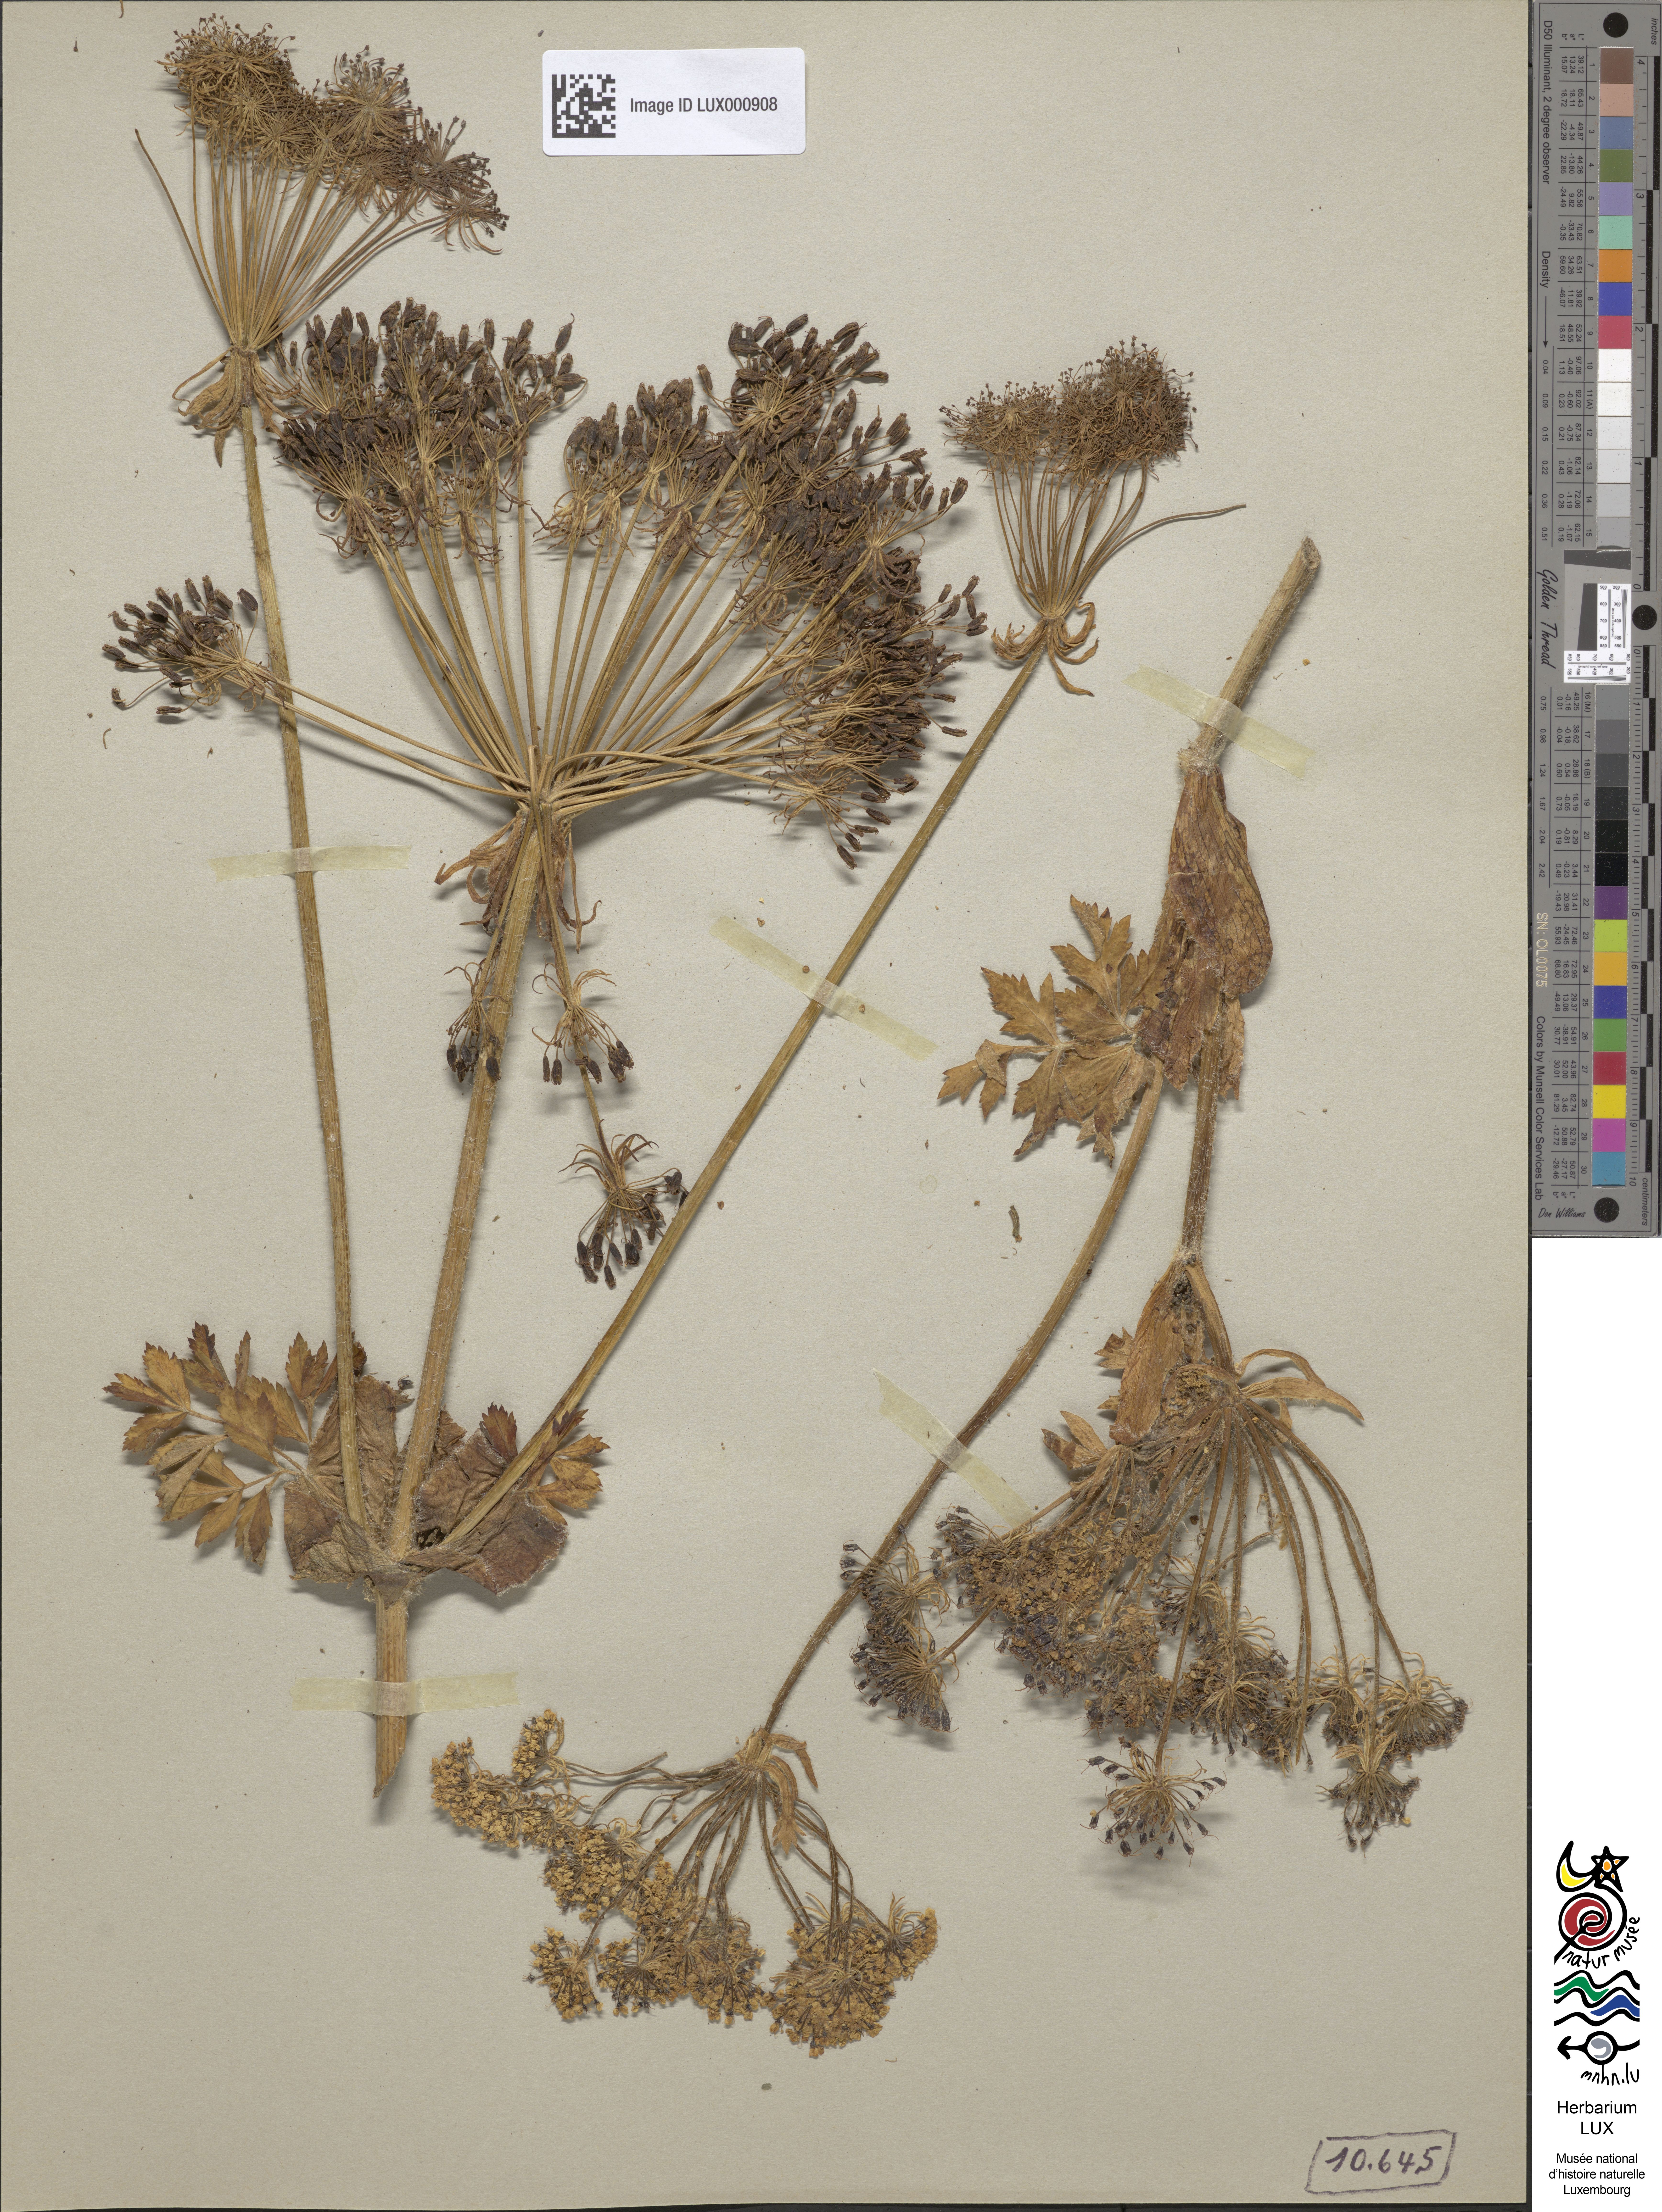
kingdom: Plantae
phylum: Tracheophyta
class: Magnoliopsida
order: Apiales
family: Apiaceae
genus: Laser
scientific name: Laser archangelica
